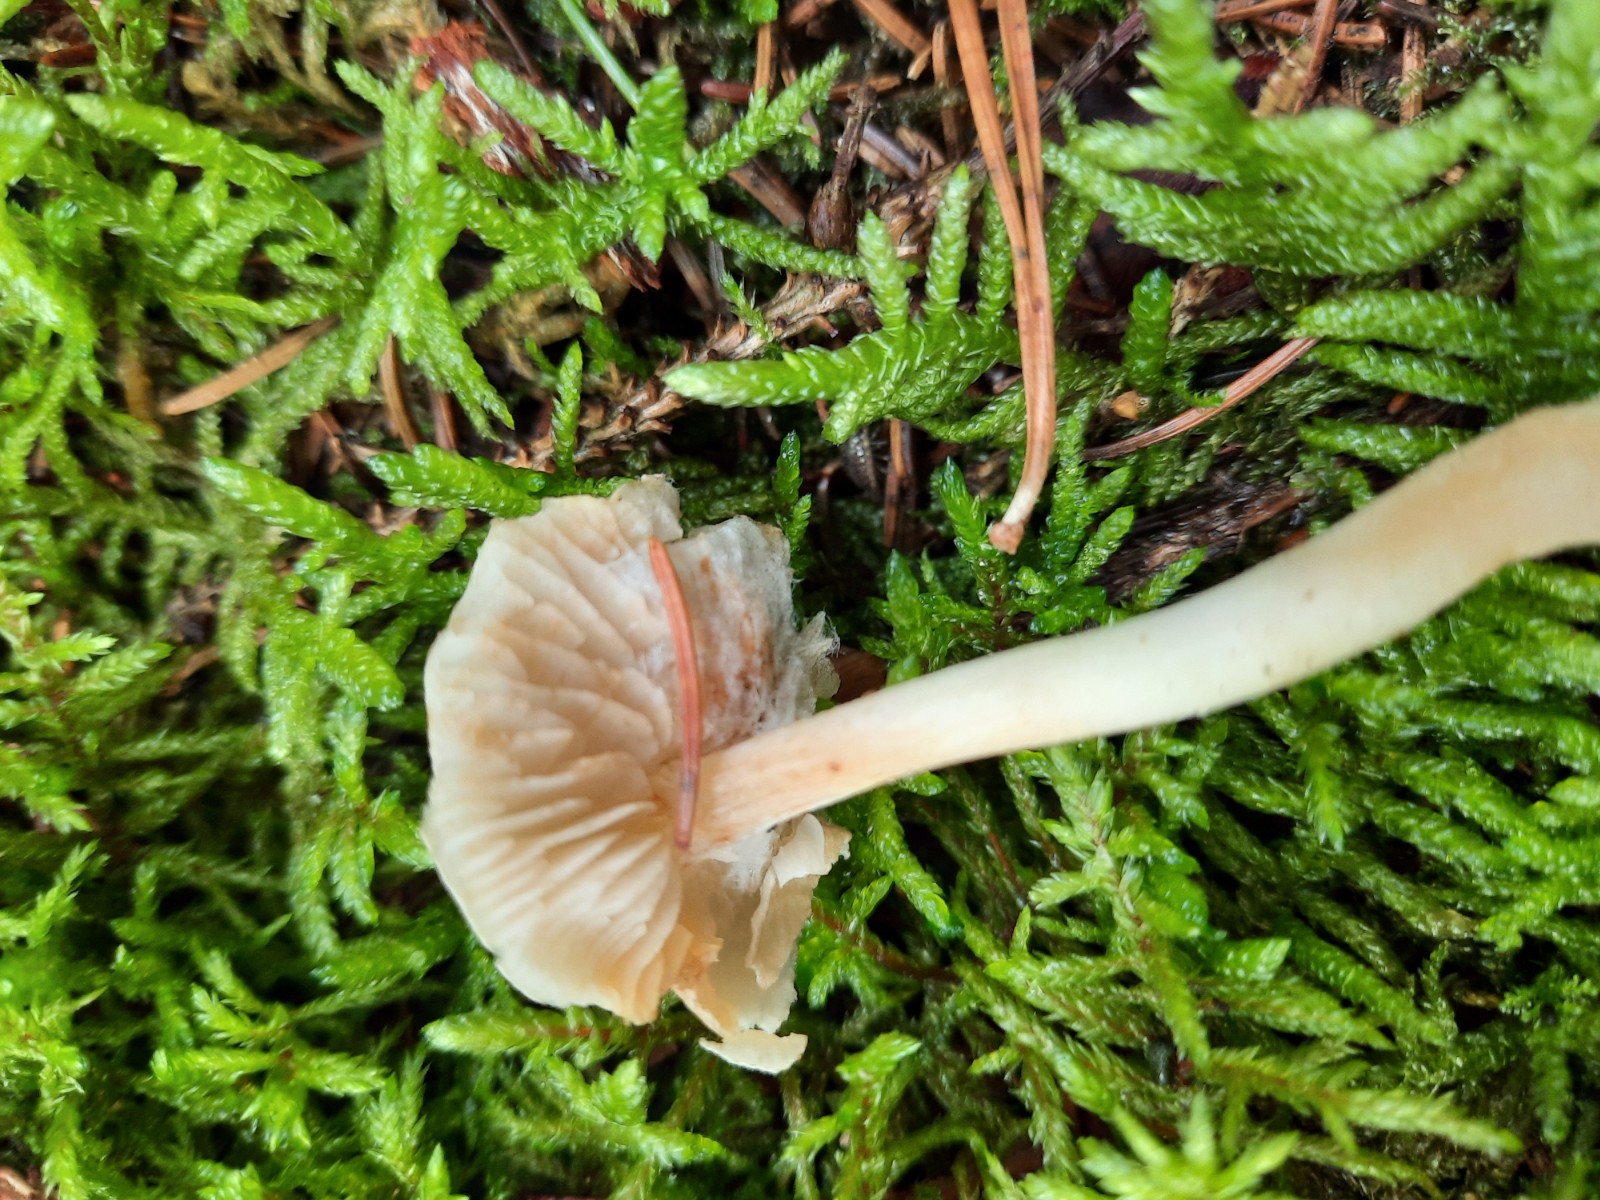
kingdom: Fungi
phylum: Basidiomycota
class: Agaricomycetes
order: Agaricales
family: Tricholomataceae
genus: Tricholoma
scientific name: Tricholoma inamoenum
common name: højstokket ridderhat
